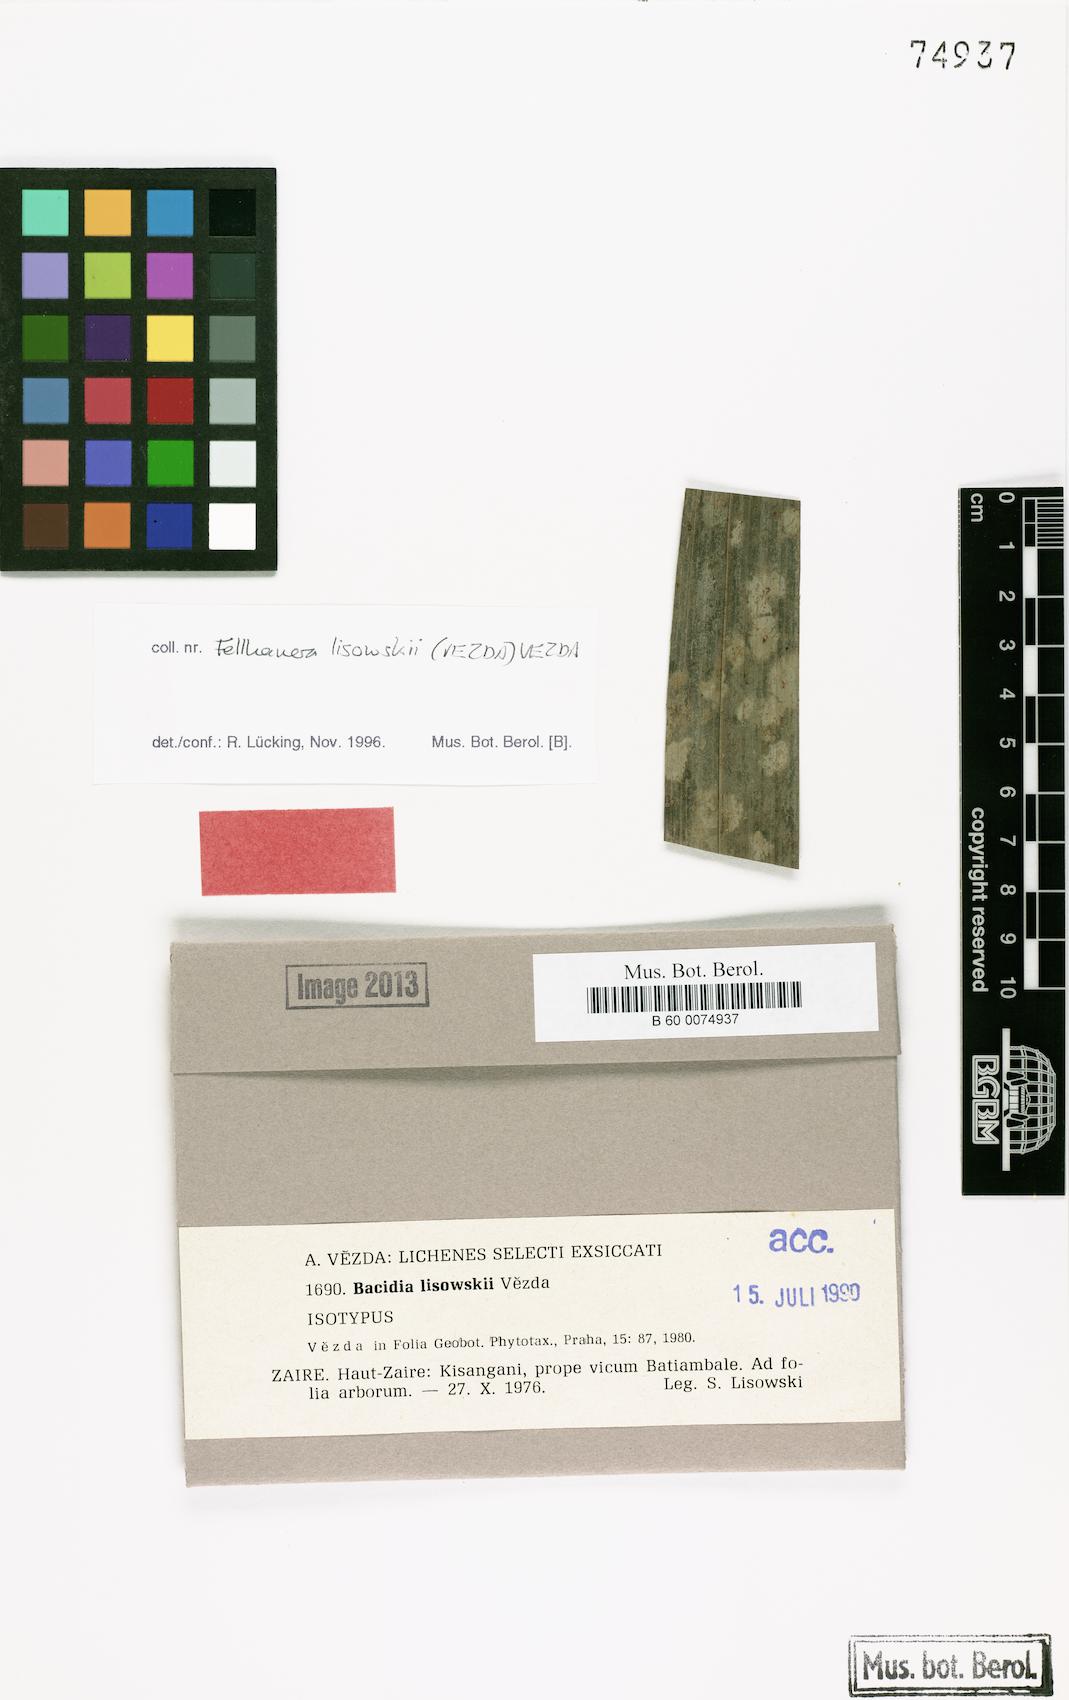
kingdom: Fungi
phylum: Ascomycota
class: Lecanoromycetes
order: Lecanorales
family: Byssolomataceae
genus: Fellhanera
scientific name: Fellhanera lisowskii
